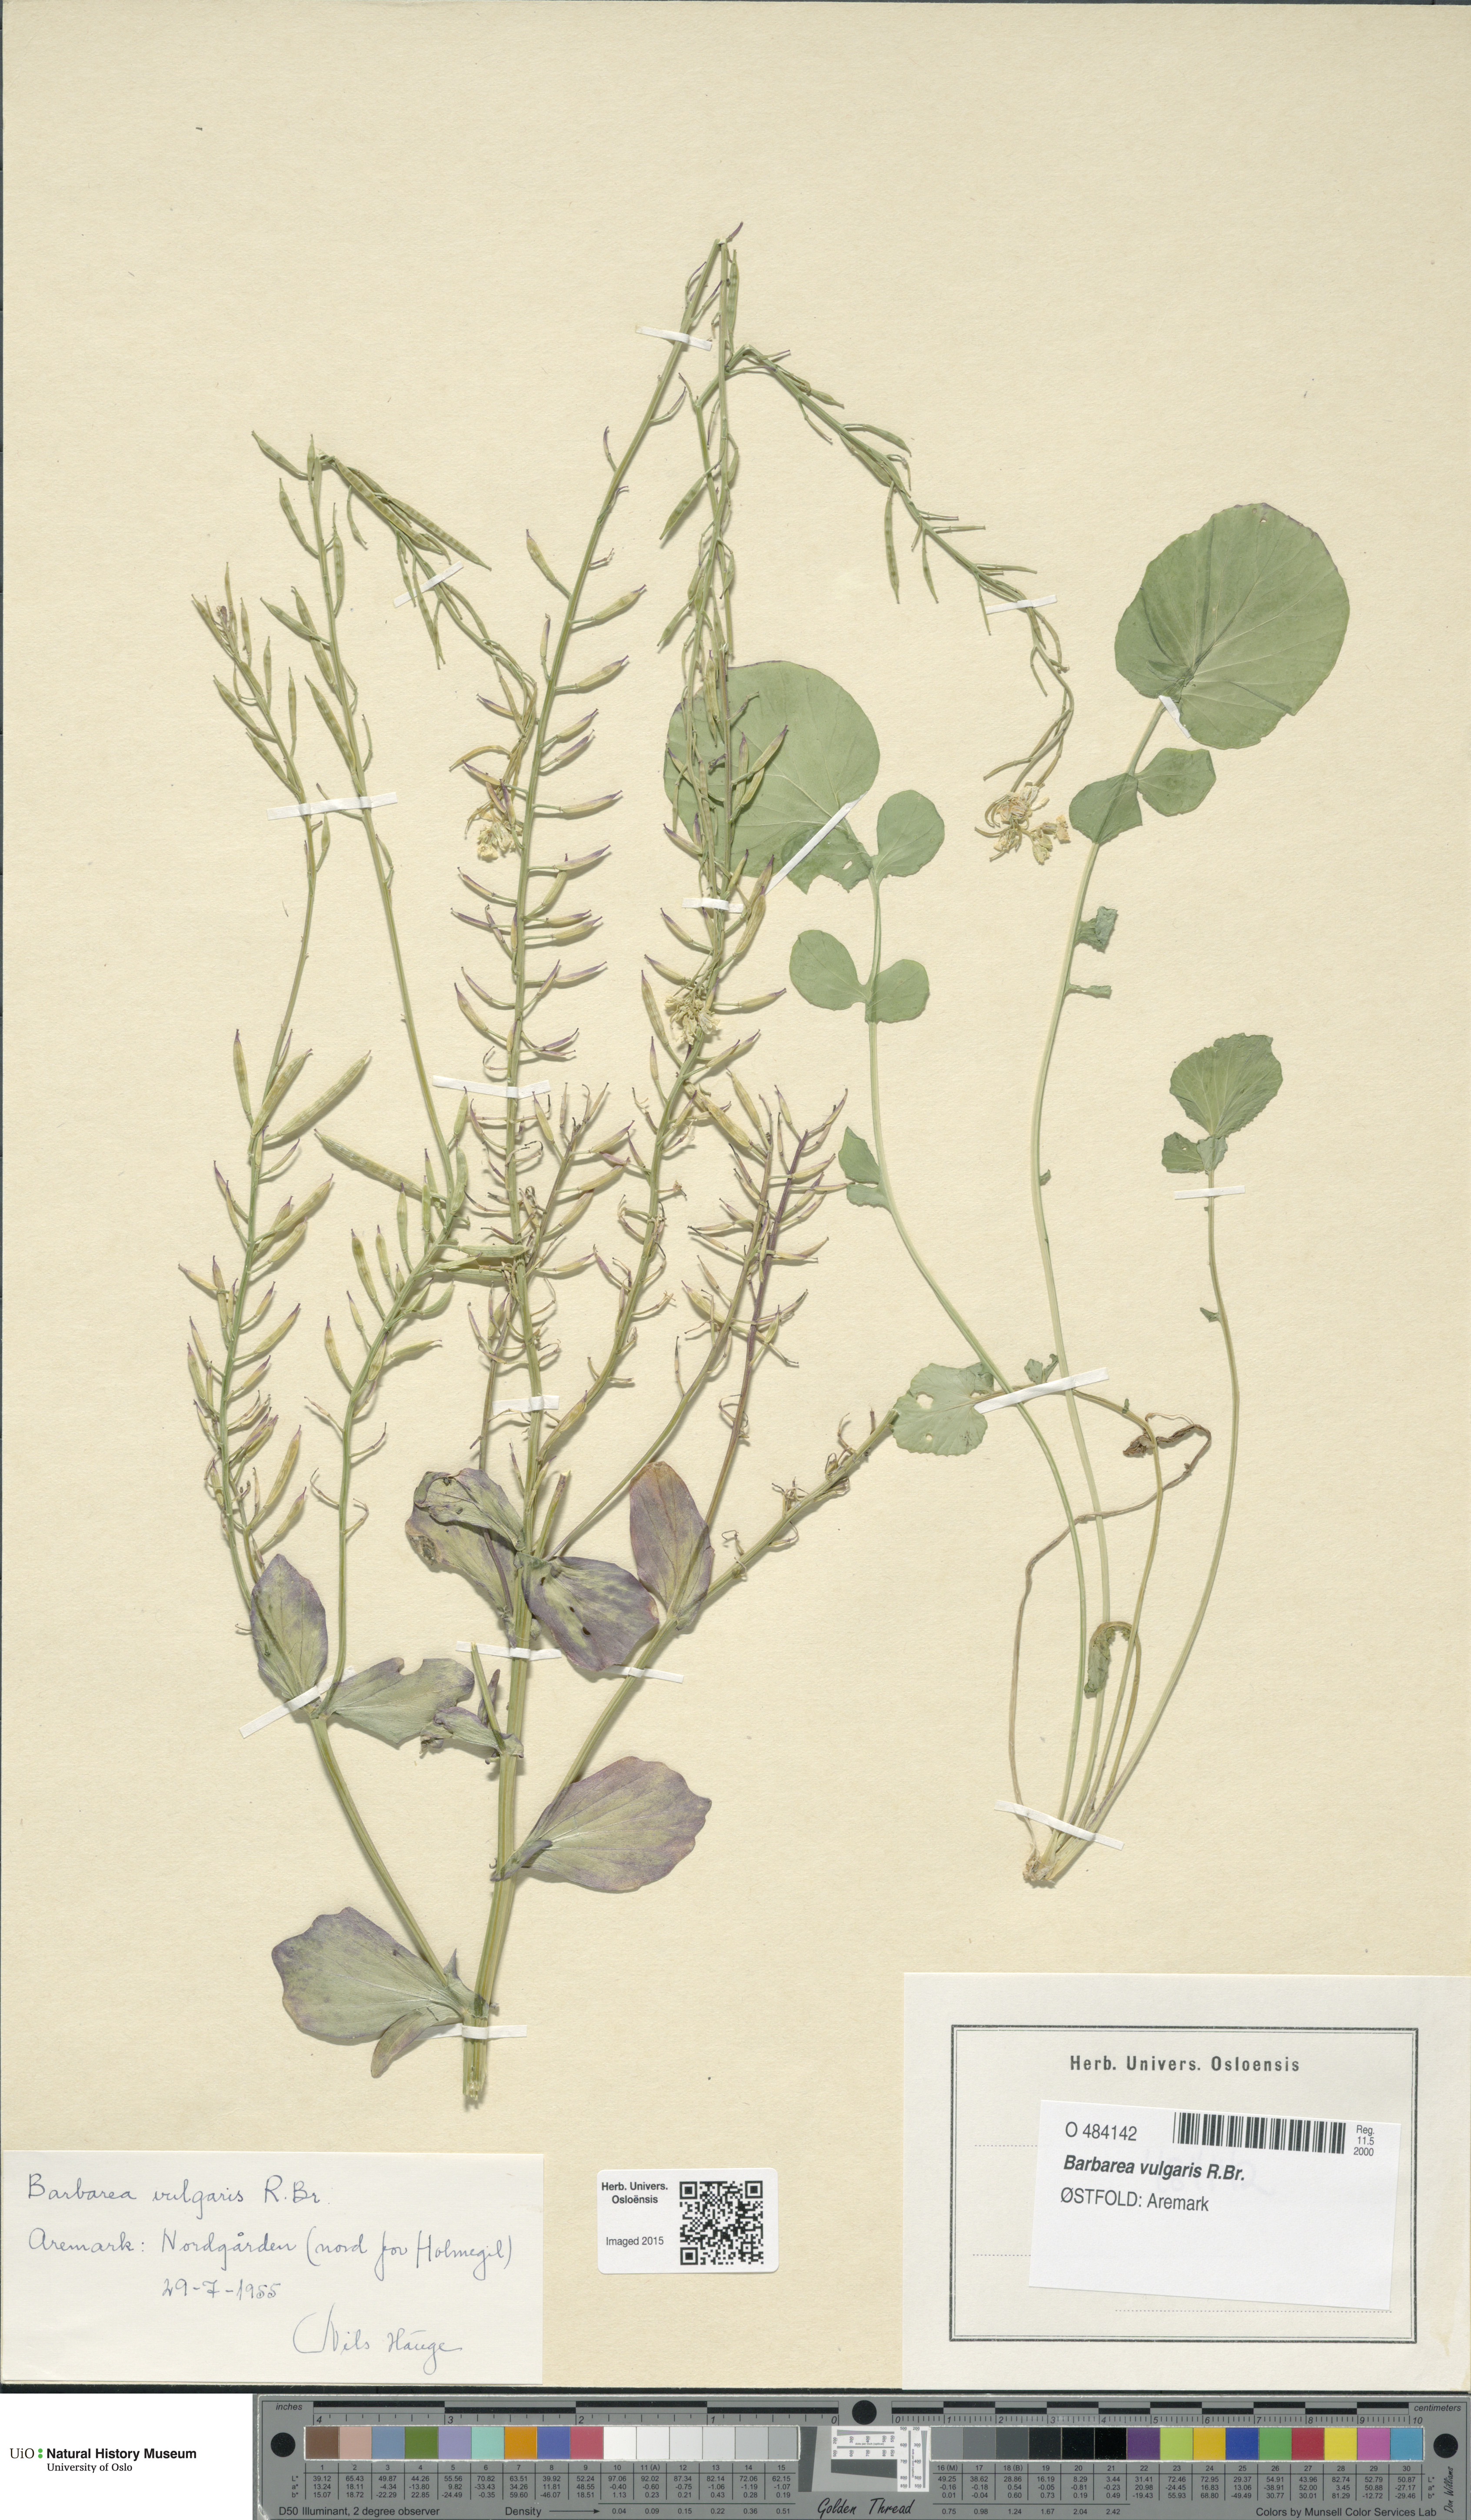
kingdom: Plantae
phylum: Tracheophyta
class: Magnoliopsida
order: Brassicales
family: Brassicaceae
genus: Barbarea
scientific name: Barbarea vulgaris
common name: Cressy-greens
